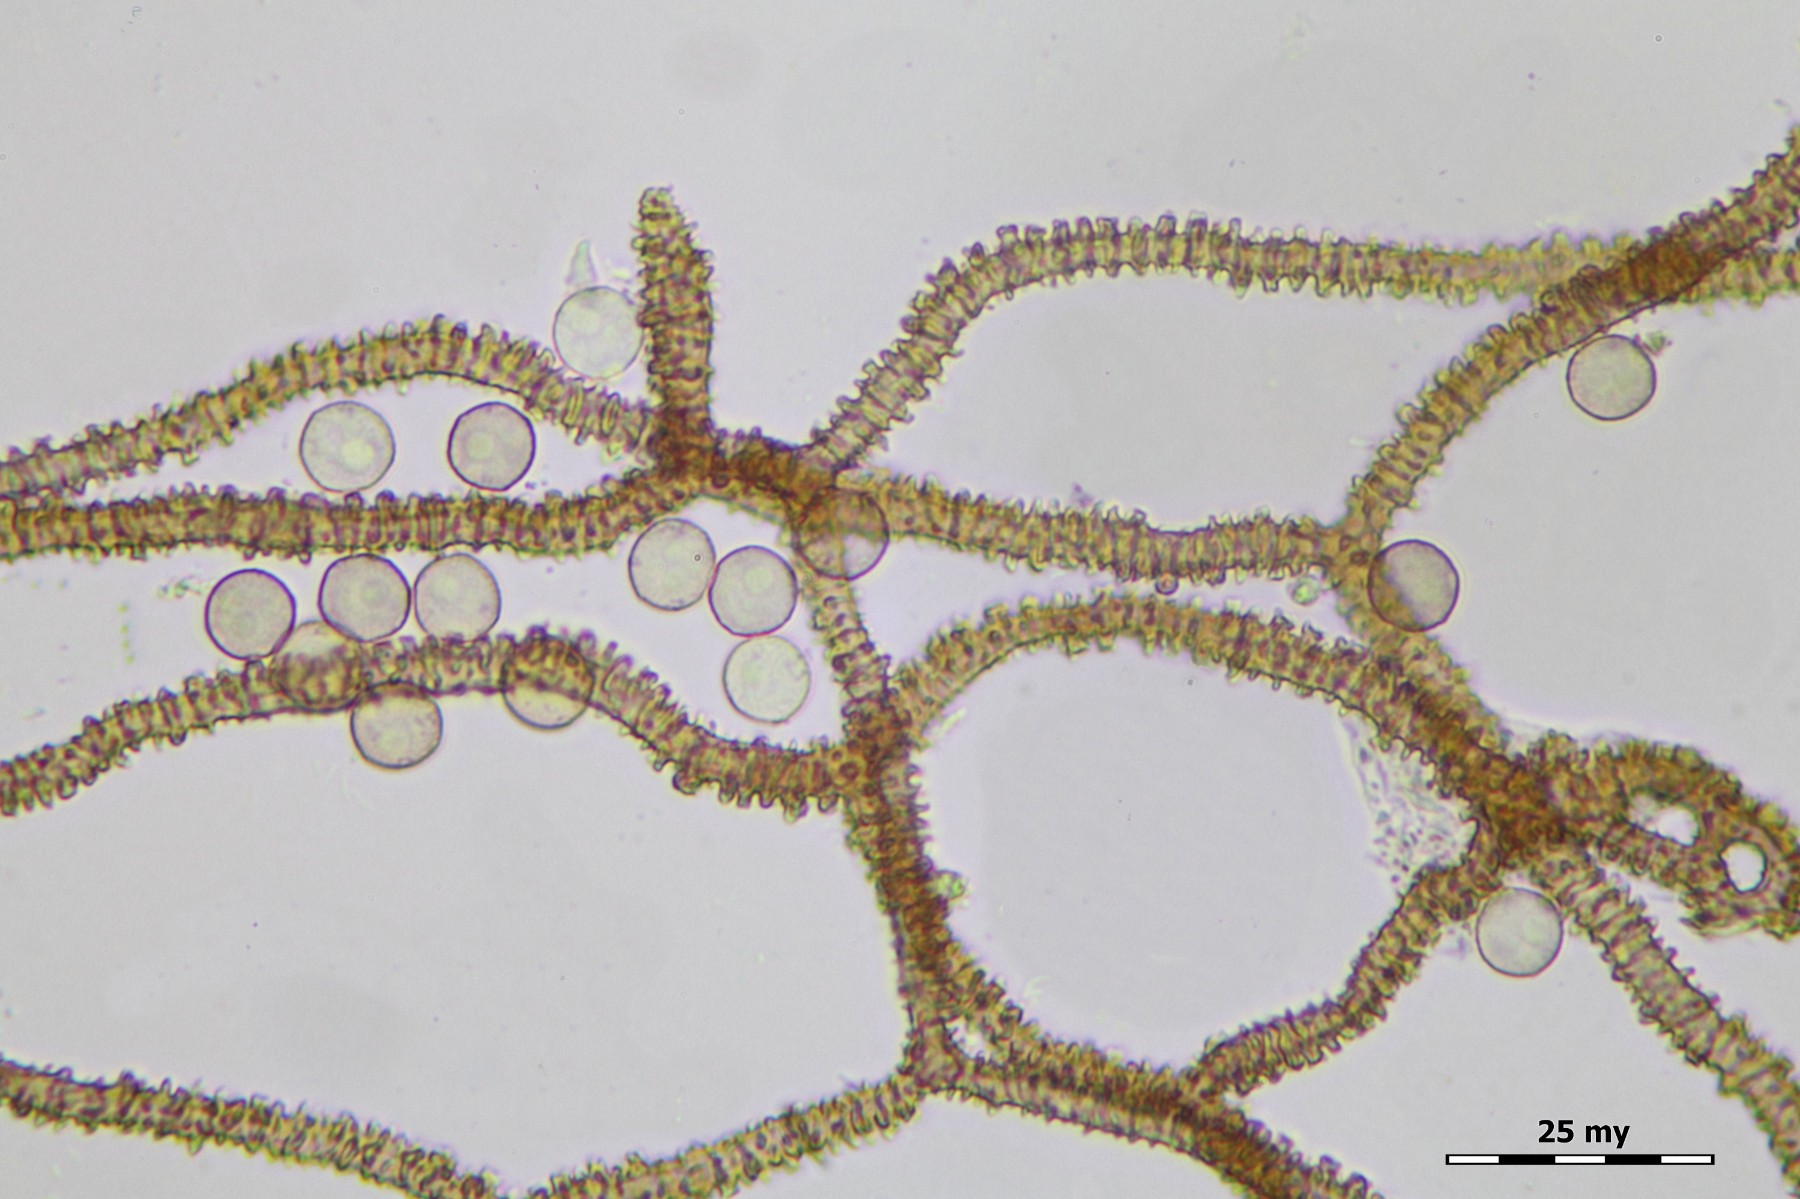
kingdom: Protozoa
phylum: Mycetozoa
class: Myxomycetes
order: Trichiales
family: Arcyriaceae
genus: Arcyria
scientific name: Arcyria affinis
